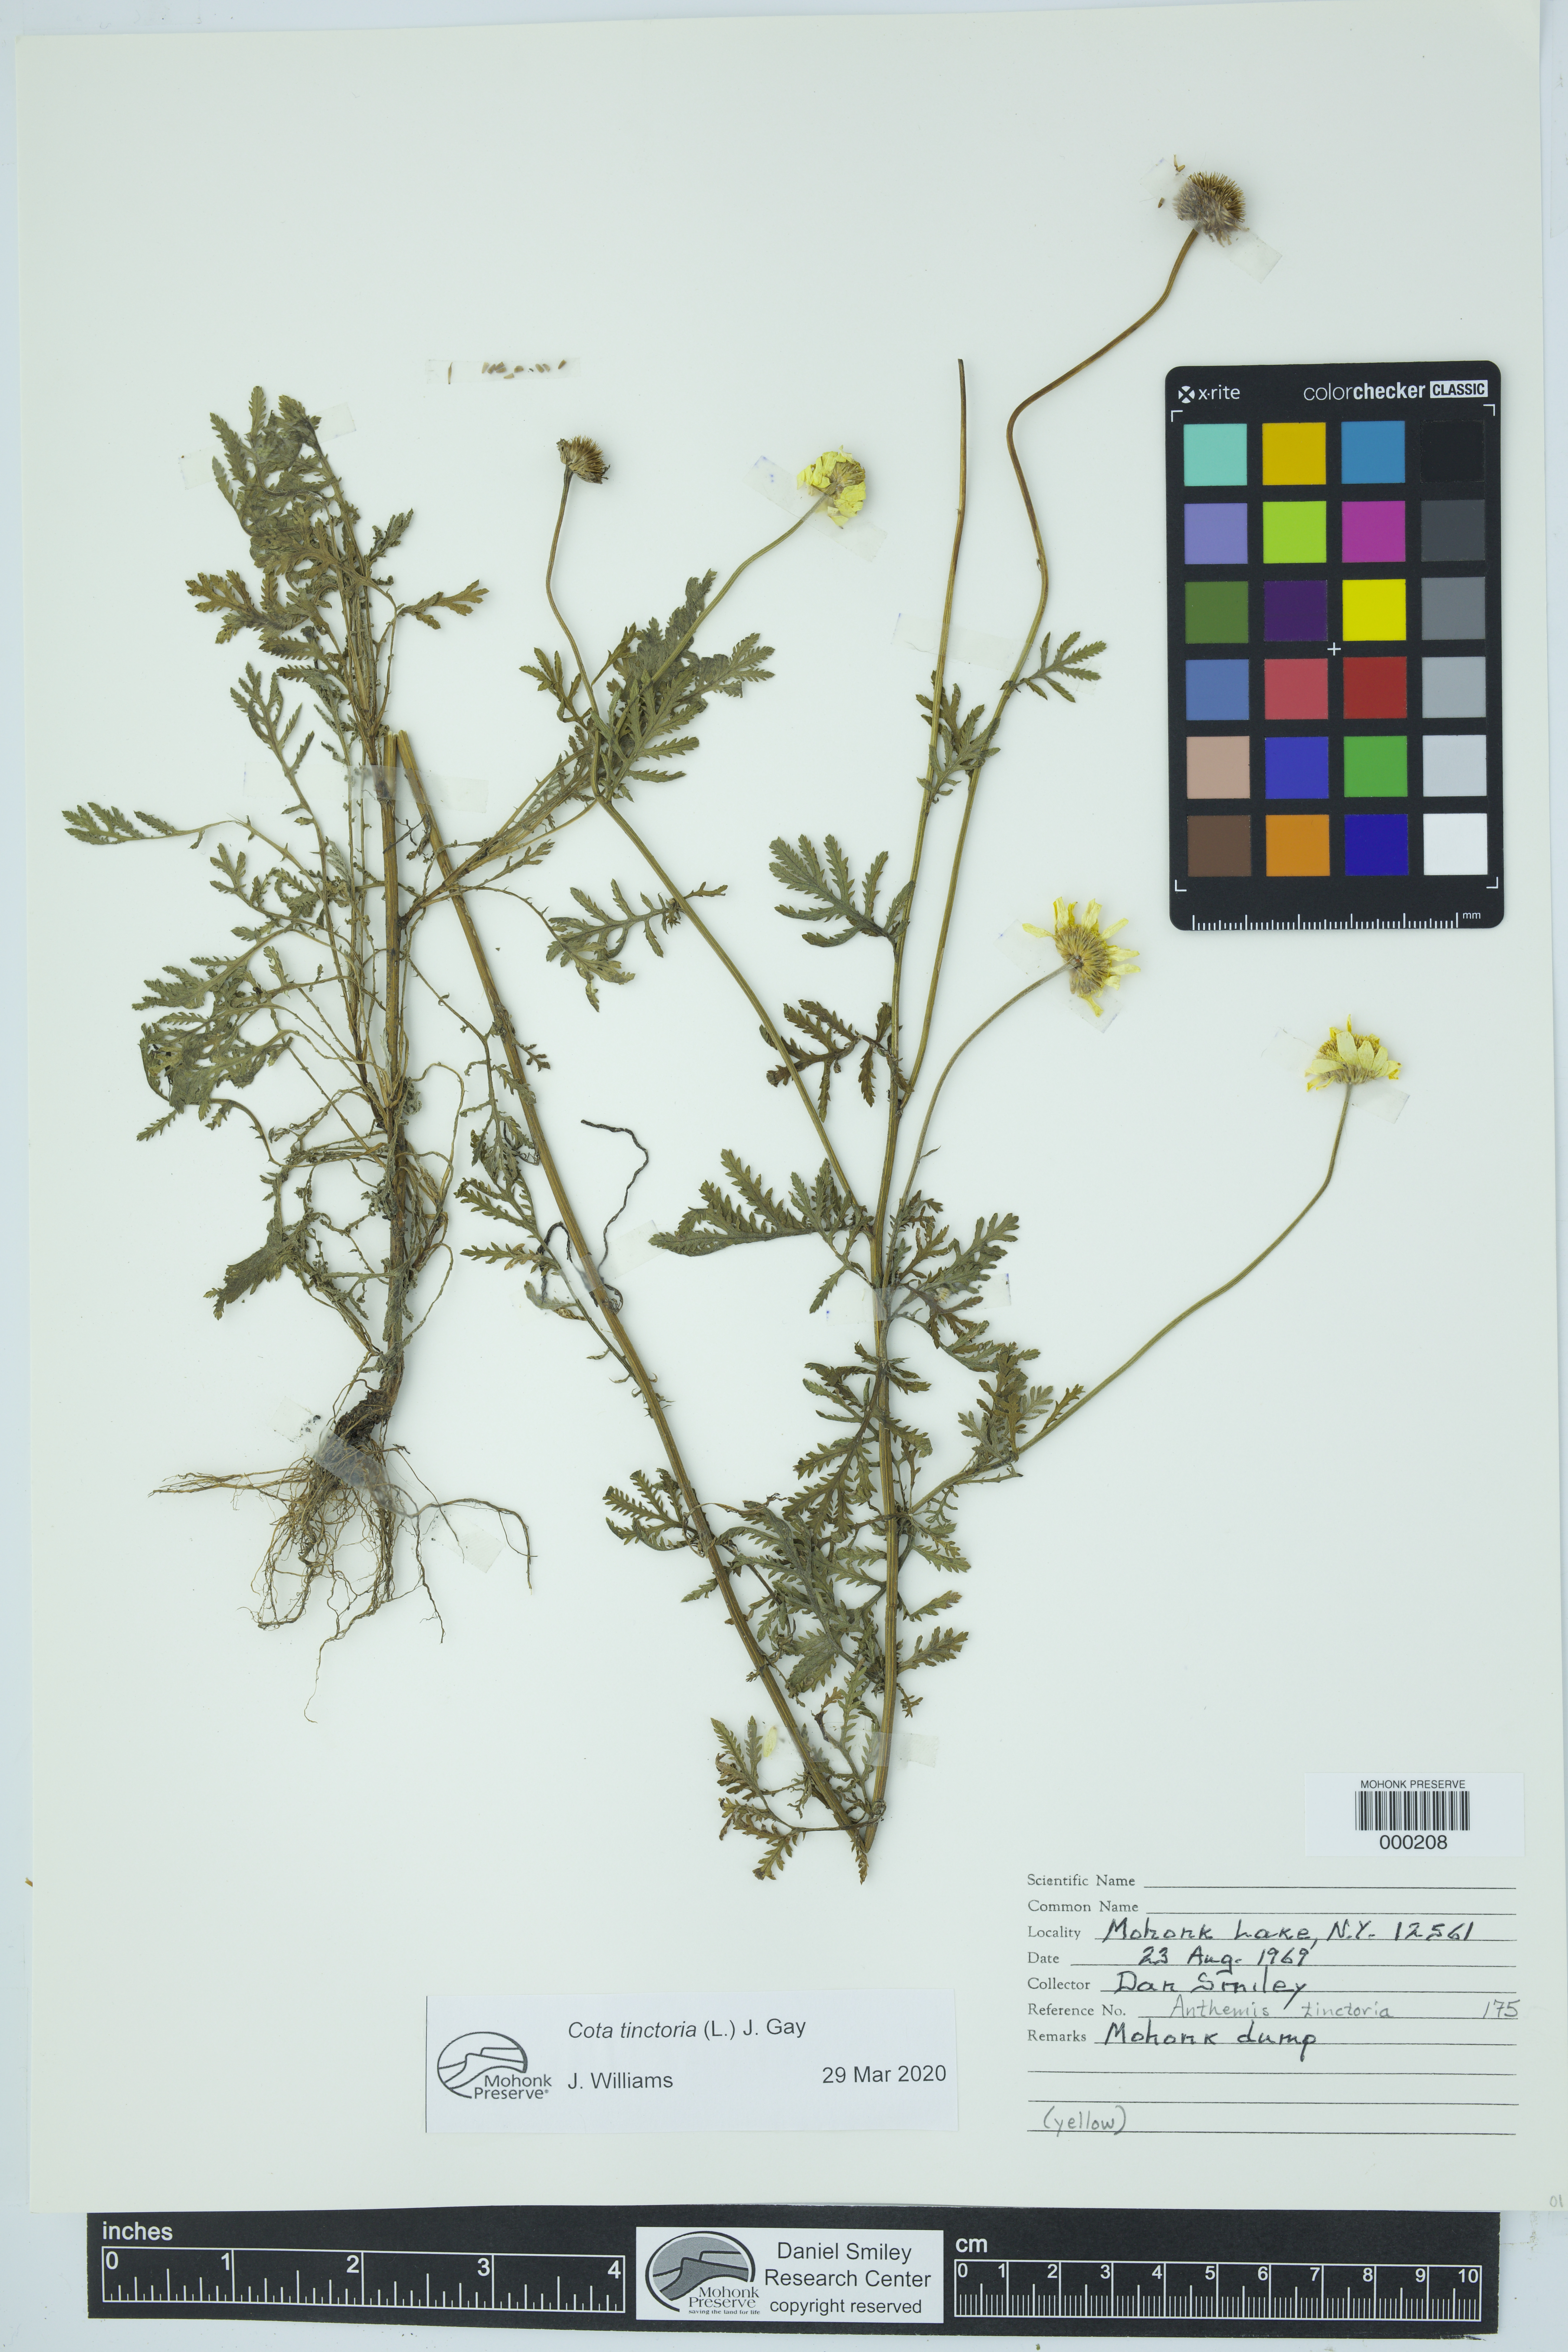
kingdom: Plantae
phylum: Tracheophyta
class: Magnoliopsida
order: Asterales
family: Asteraceae
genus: Cota
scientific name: Cota tinctoria
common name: Golden chamomile
